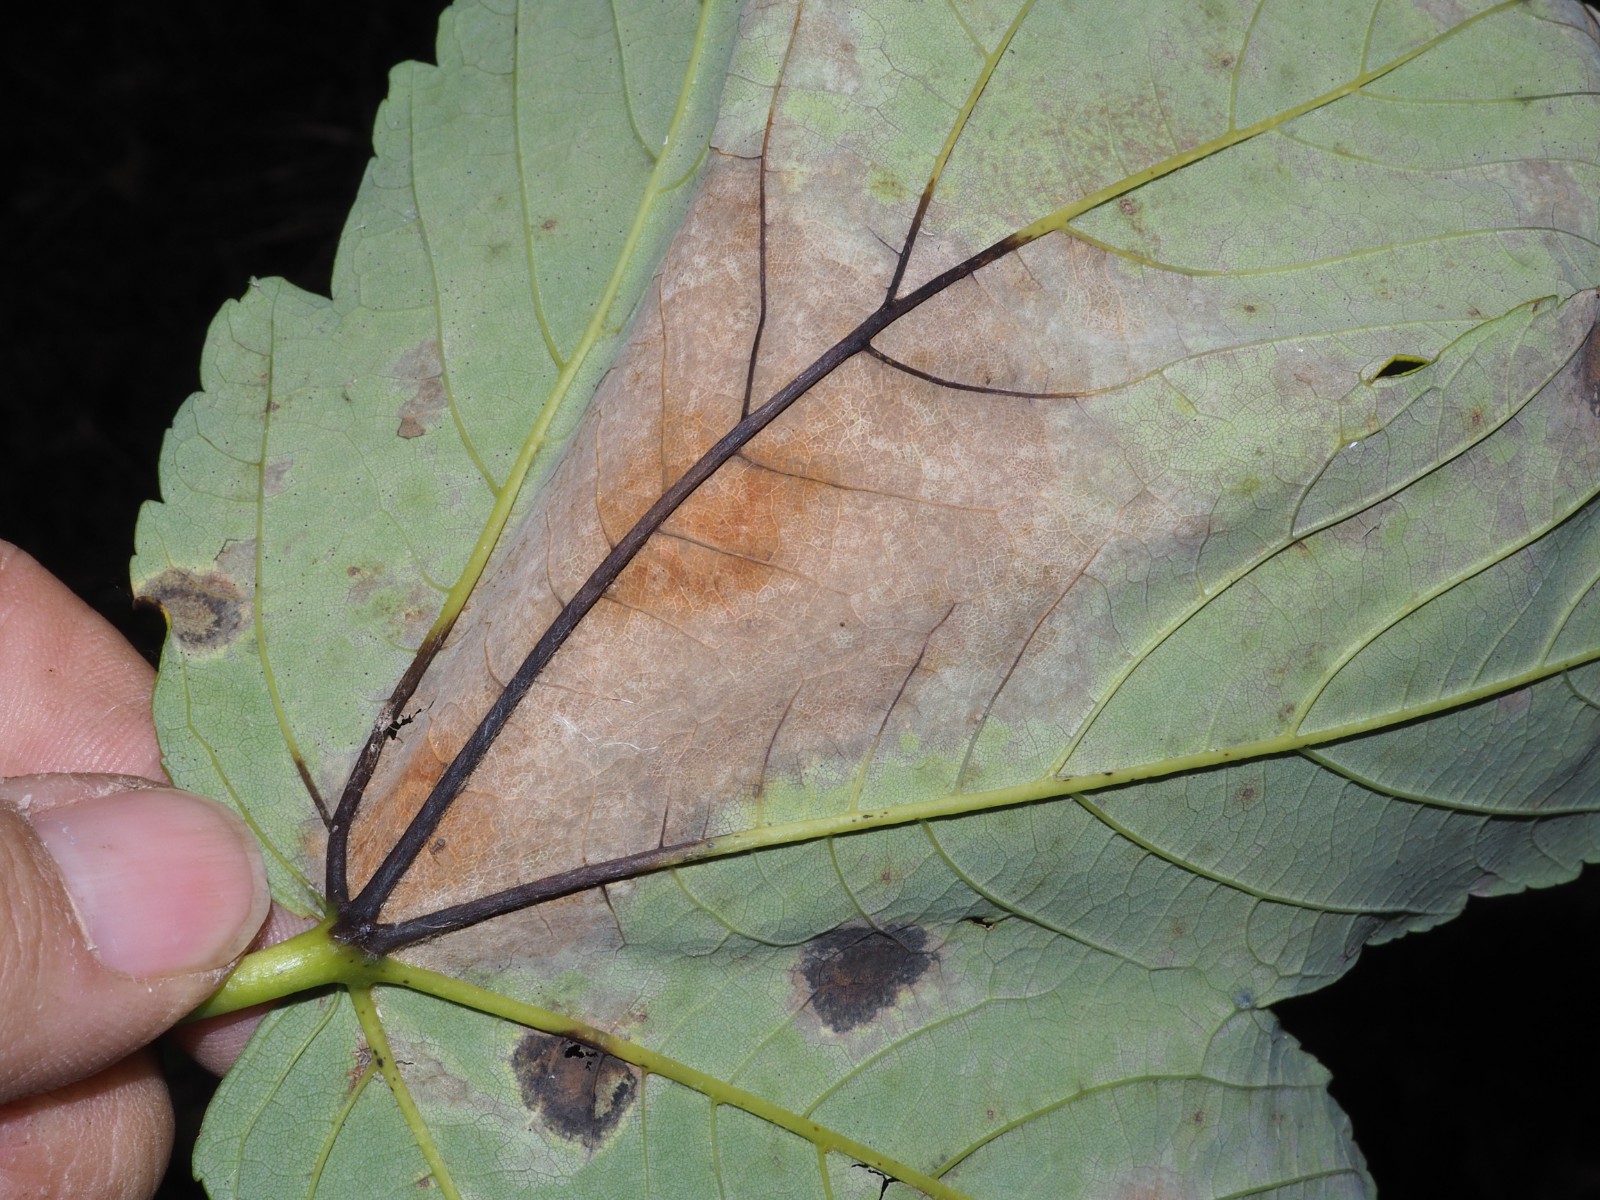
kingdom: Fungi
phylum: Ascomycota
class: Sordariomycetes
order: Diaporthales
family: Gnomoniaceae
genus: Pleuroceras
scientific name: Pleuroceras pseudoplatani
